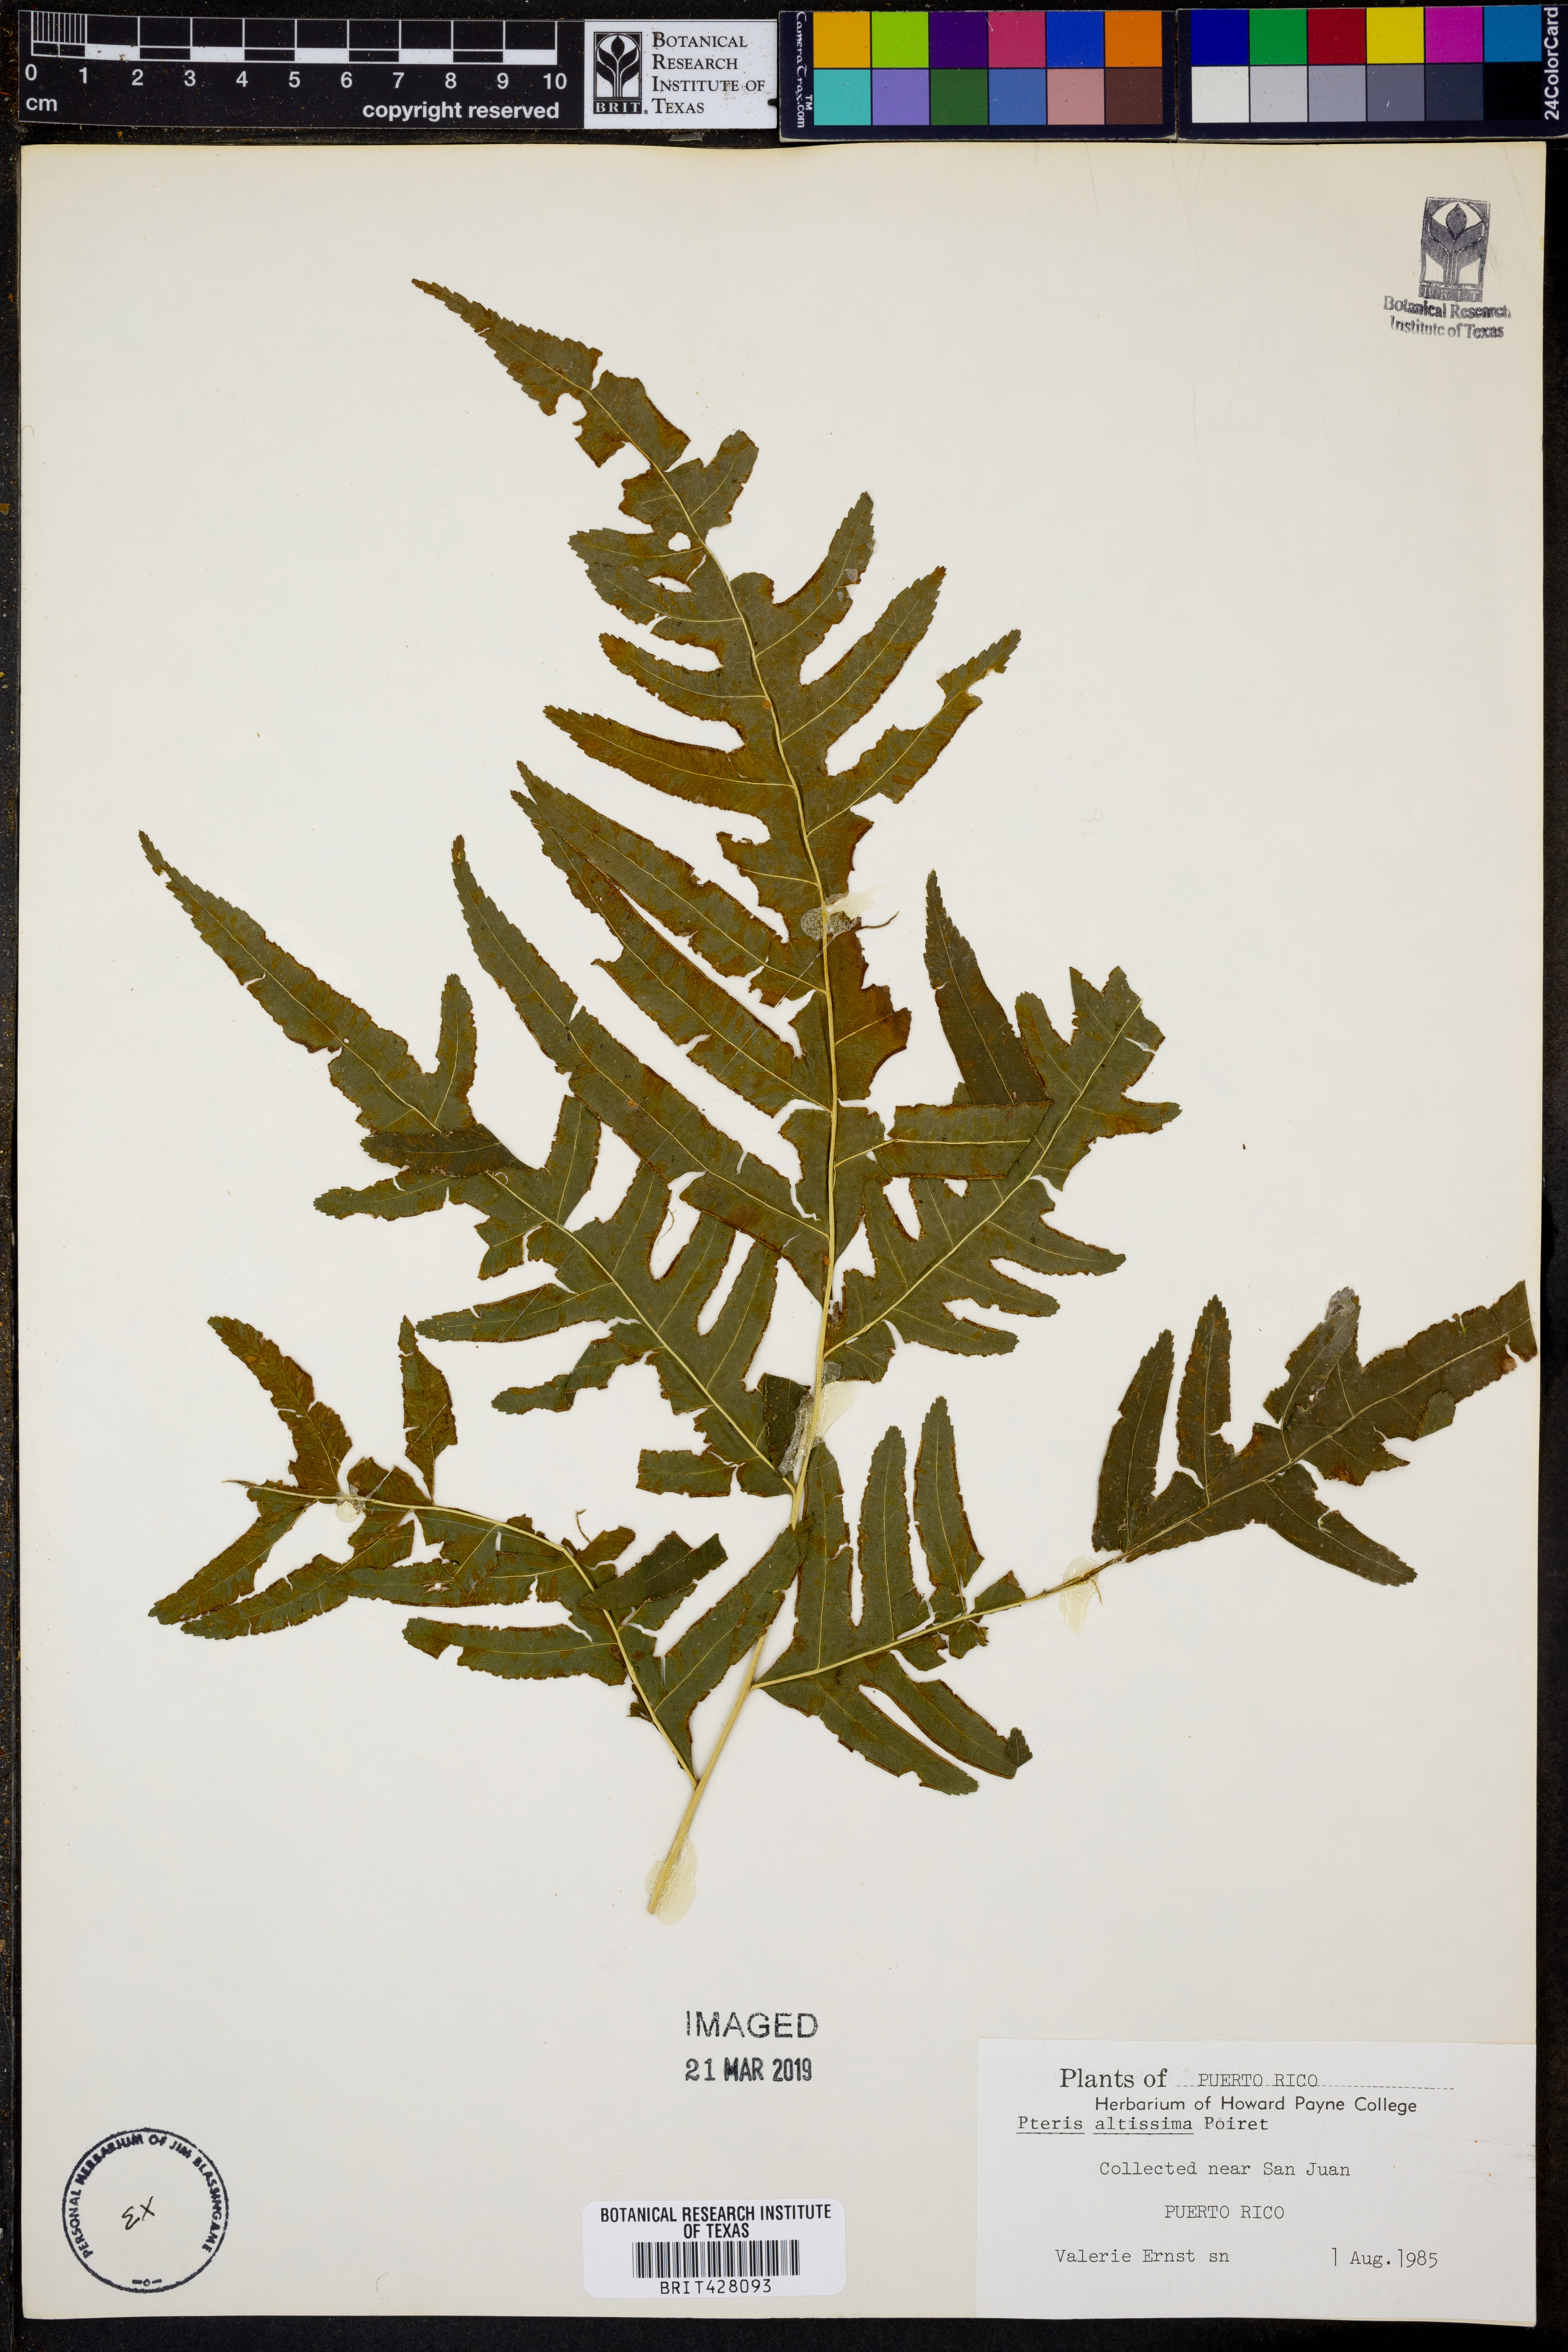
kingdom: Plantae
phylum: Tracheophyta
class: Polypodiopsida
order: Polypodiales
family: Pteridaceae
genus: Pteris
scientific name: Pteris altissima
